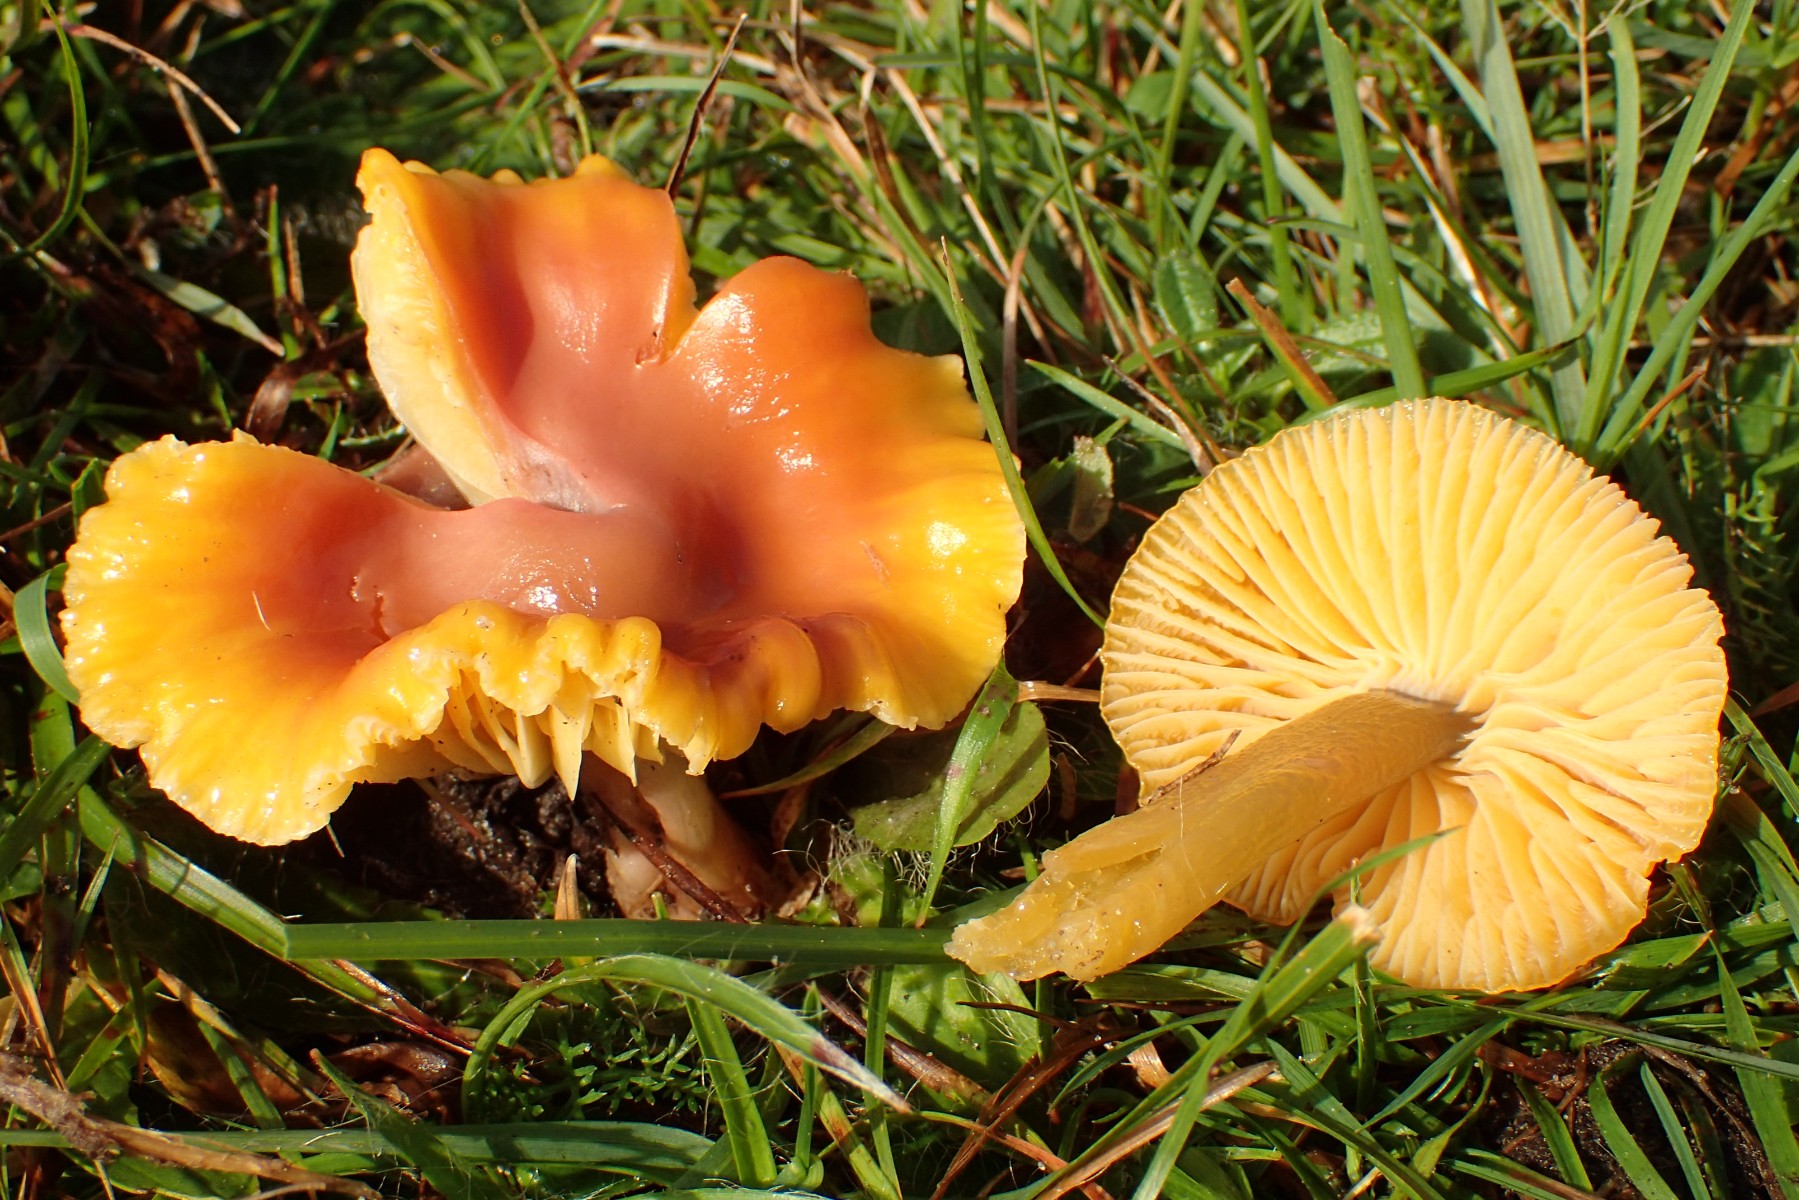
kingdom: Fungi
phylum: Basidiomycota
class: Agaricomycetes
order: Agaricales
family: Hygrophoraceae
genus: Gliophorus
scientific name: Gliophorus laetus
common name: brusk-vokshat
